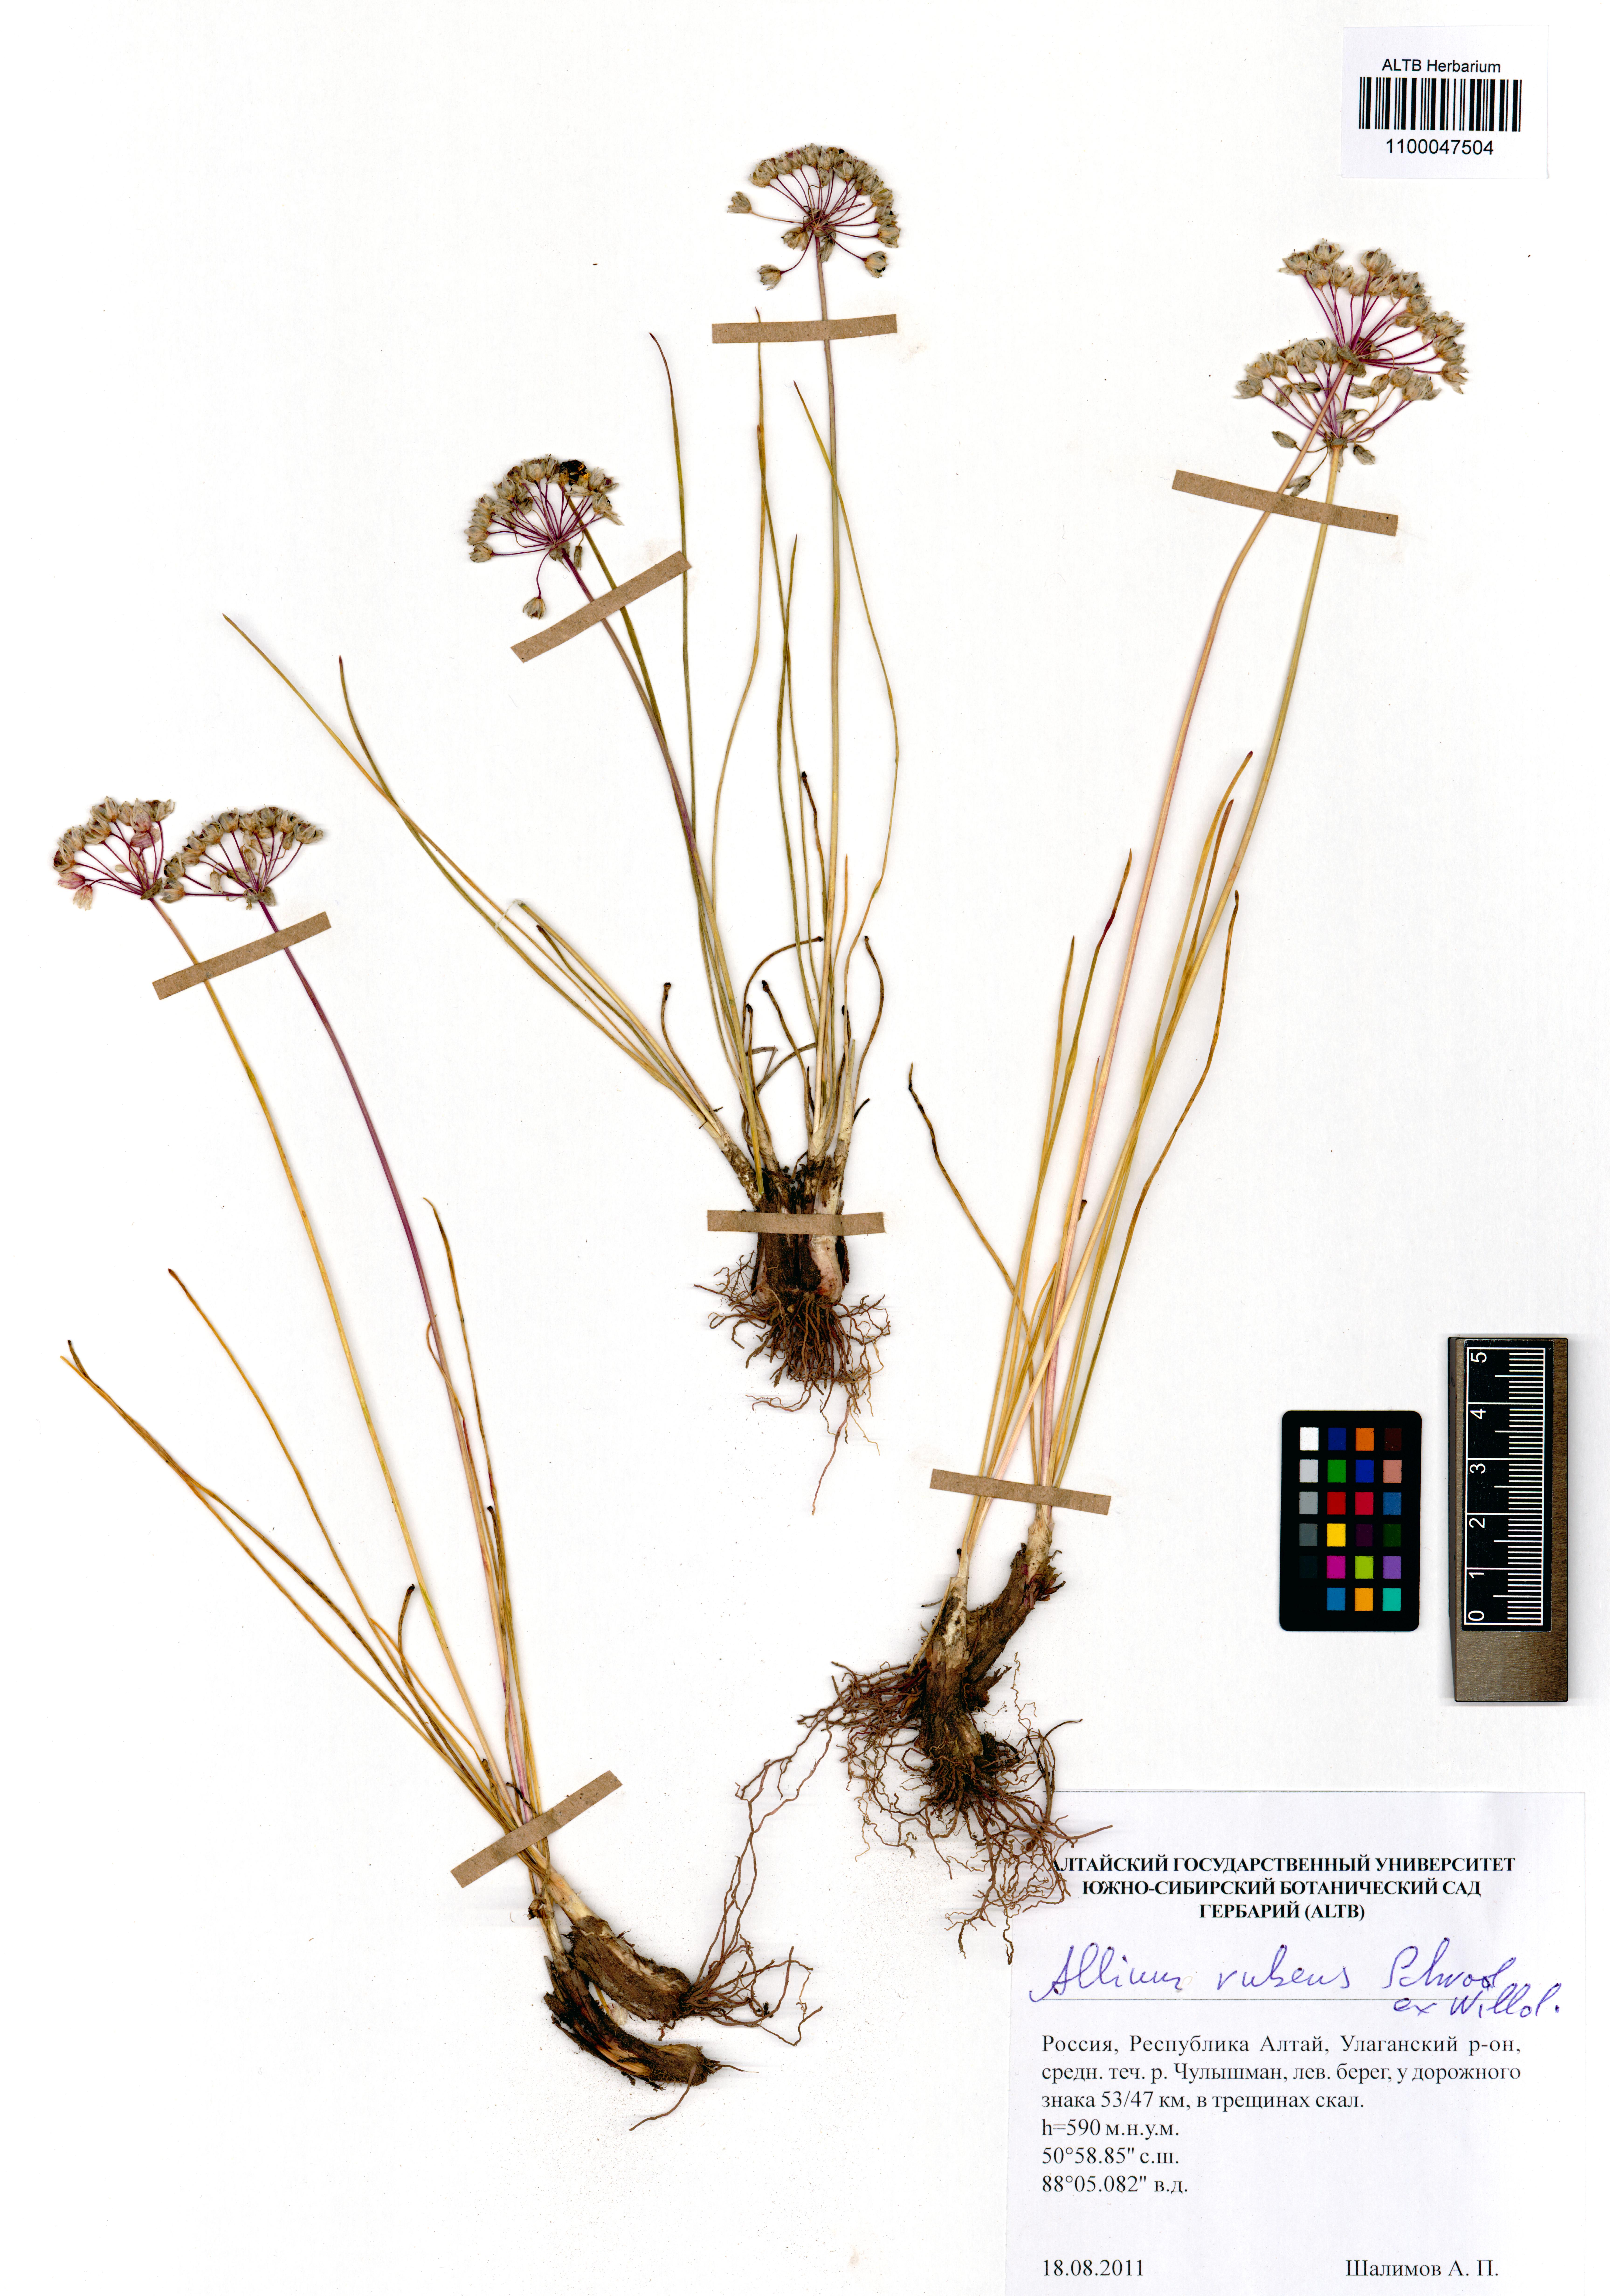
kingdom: Plantae
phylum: Tracheophyta
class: Liliopsida
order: Asparagales
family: Amaryllidaceae
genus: Allium
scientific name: Allium rubens
